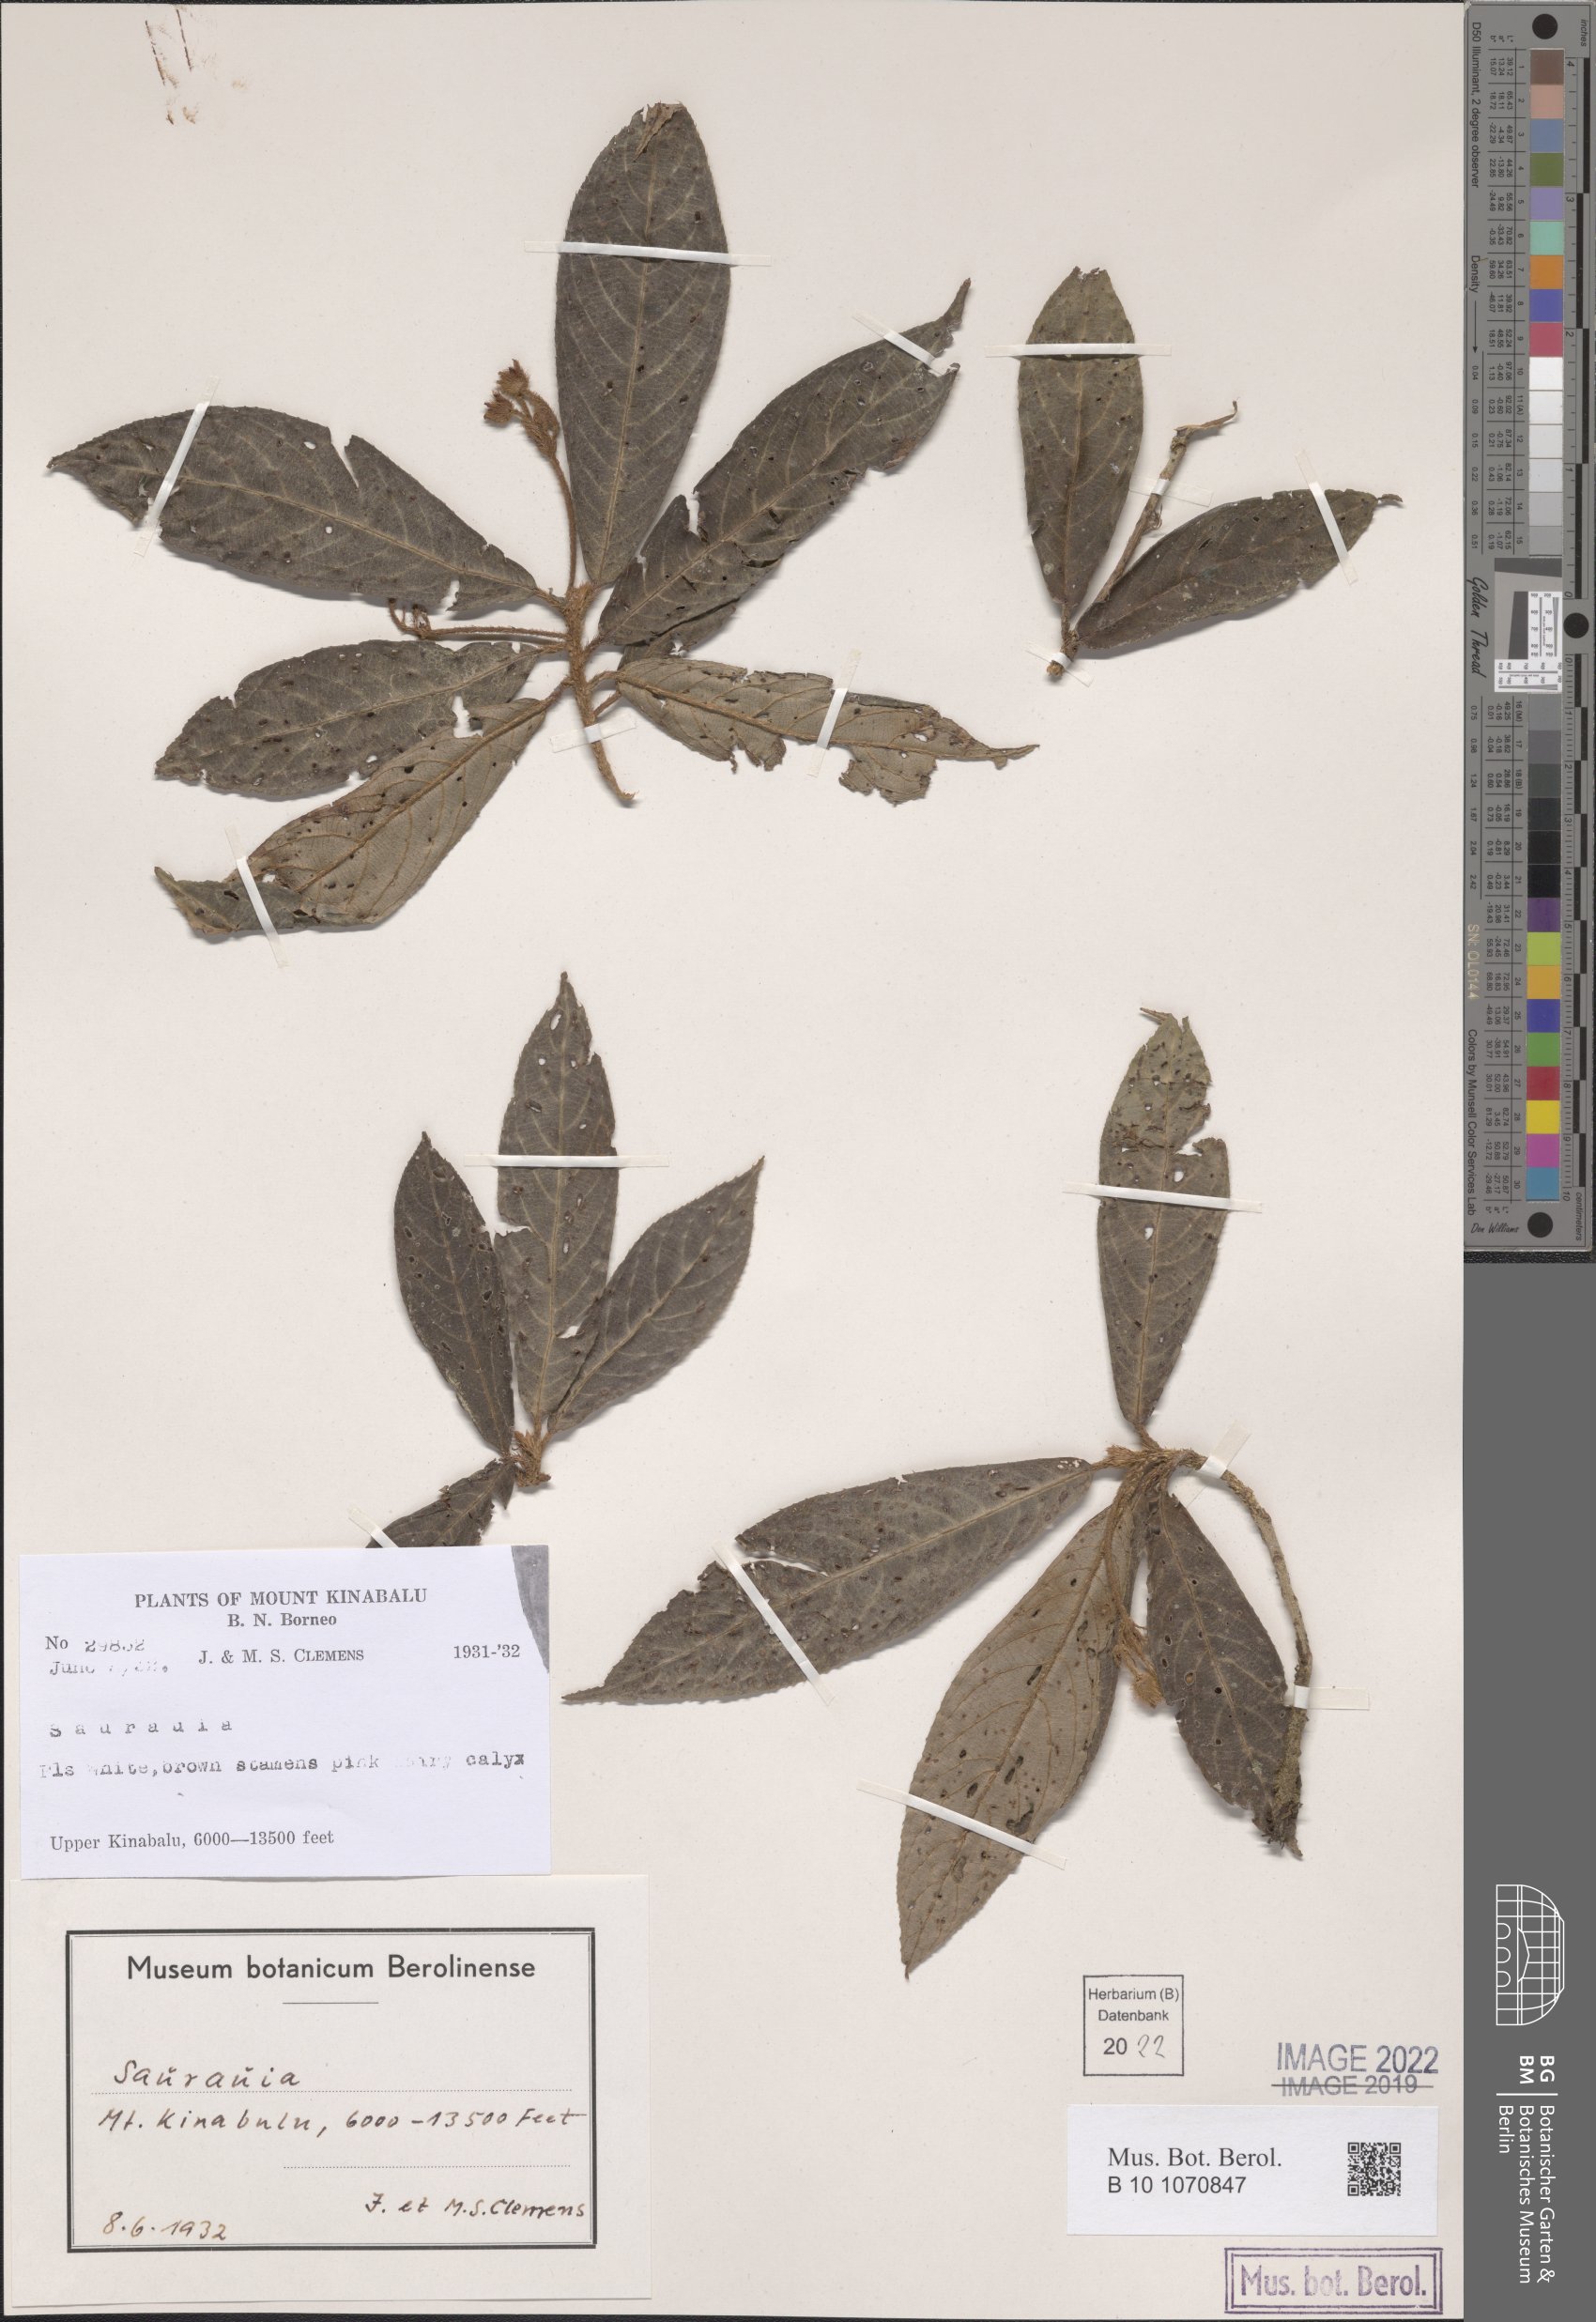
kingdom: Plantae
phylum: Tracheophyta
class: Magnoliopsida
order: Ericales
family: Actinidiaceae
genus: Saurauia
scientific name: Saurauia
